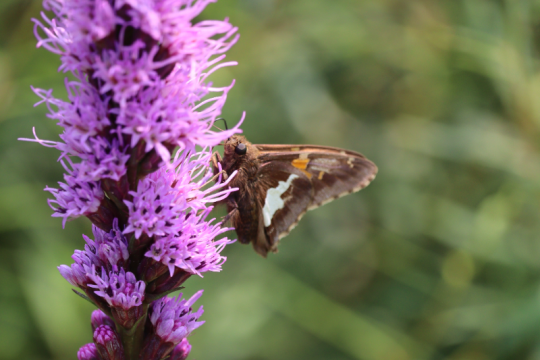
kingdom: Animalia
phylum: Arthropoda
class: Insecta
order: Lepidoptera
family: Hesperiidae
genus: Epargyreus
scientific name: Epargyreus clarus
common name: Silver-spotted Skipper
